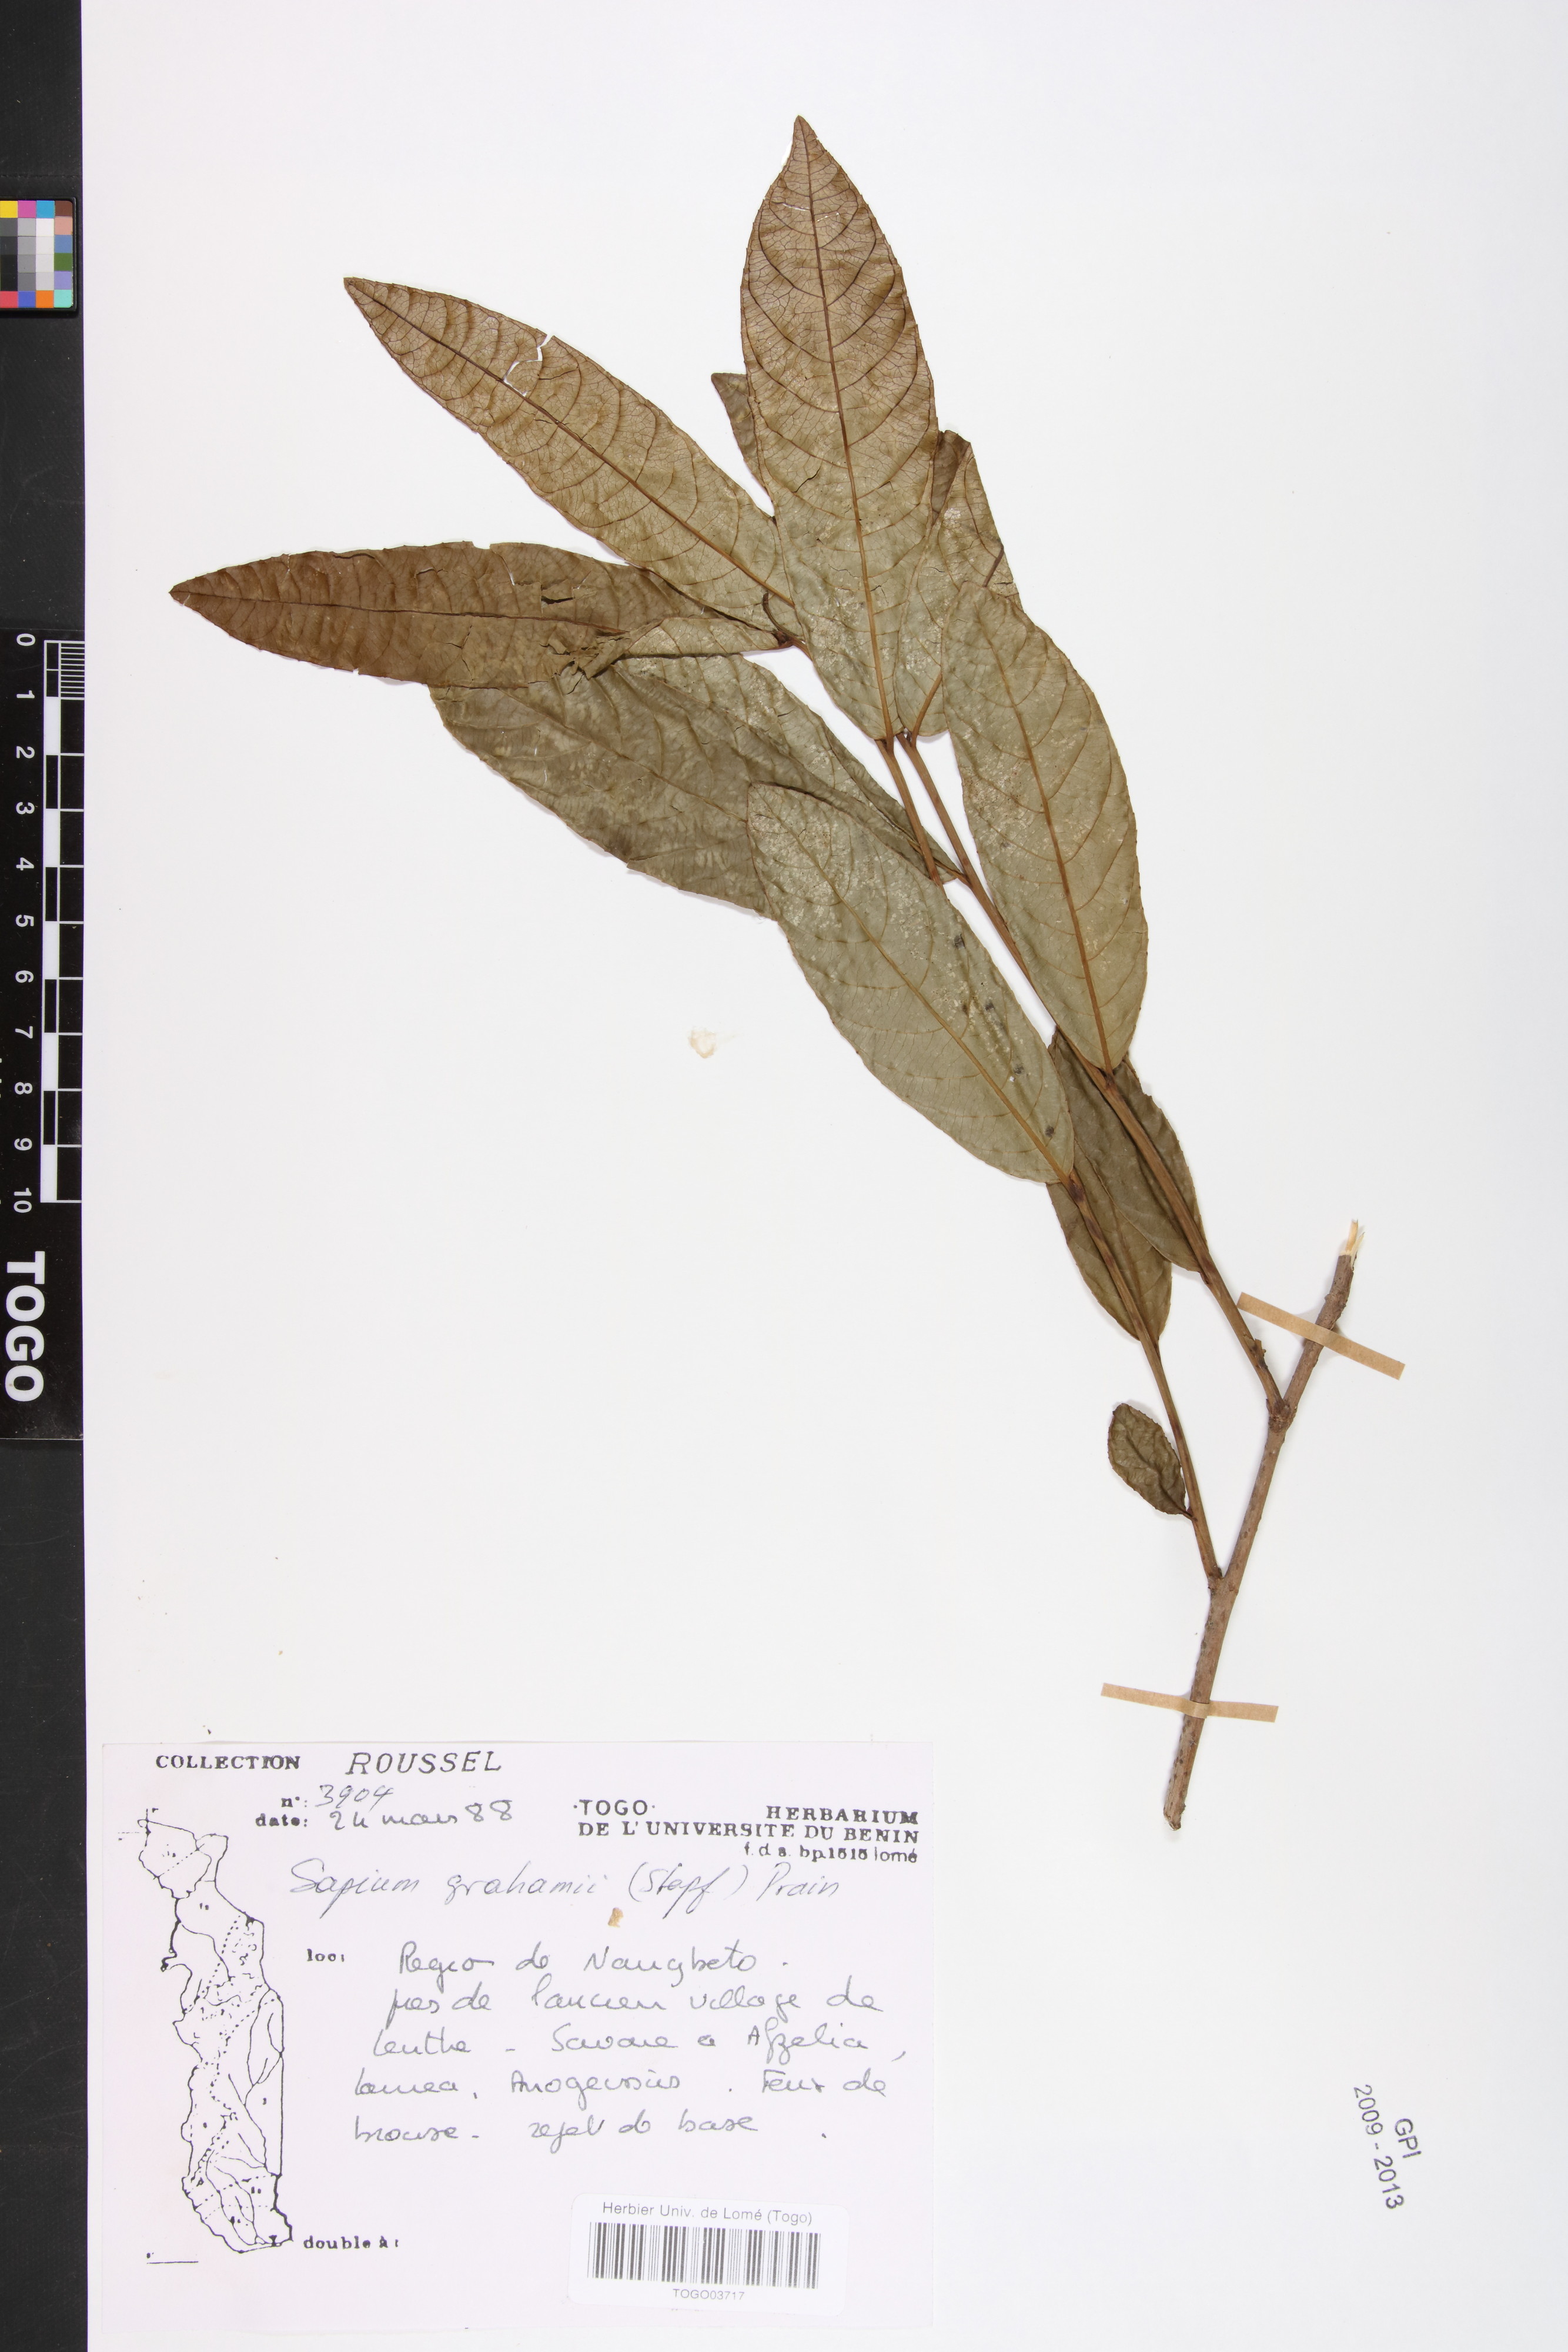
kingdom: Plantae
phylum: Tracheophyta
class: Magnoliopsida
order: Malpighiales
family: Euphorbiaceae
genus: Excoecaria
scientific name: Excoecaria grahamii
